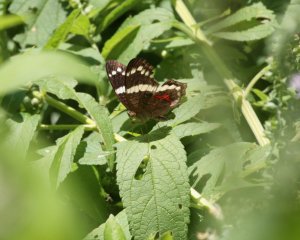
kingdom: Animalia
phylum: Arthropoda
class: Insecta
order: Lepidoptera
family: Nymphalidae
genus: Anartia
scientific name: Anartia fatima
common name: Banded Peacock
